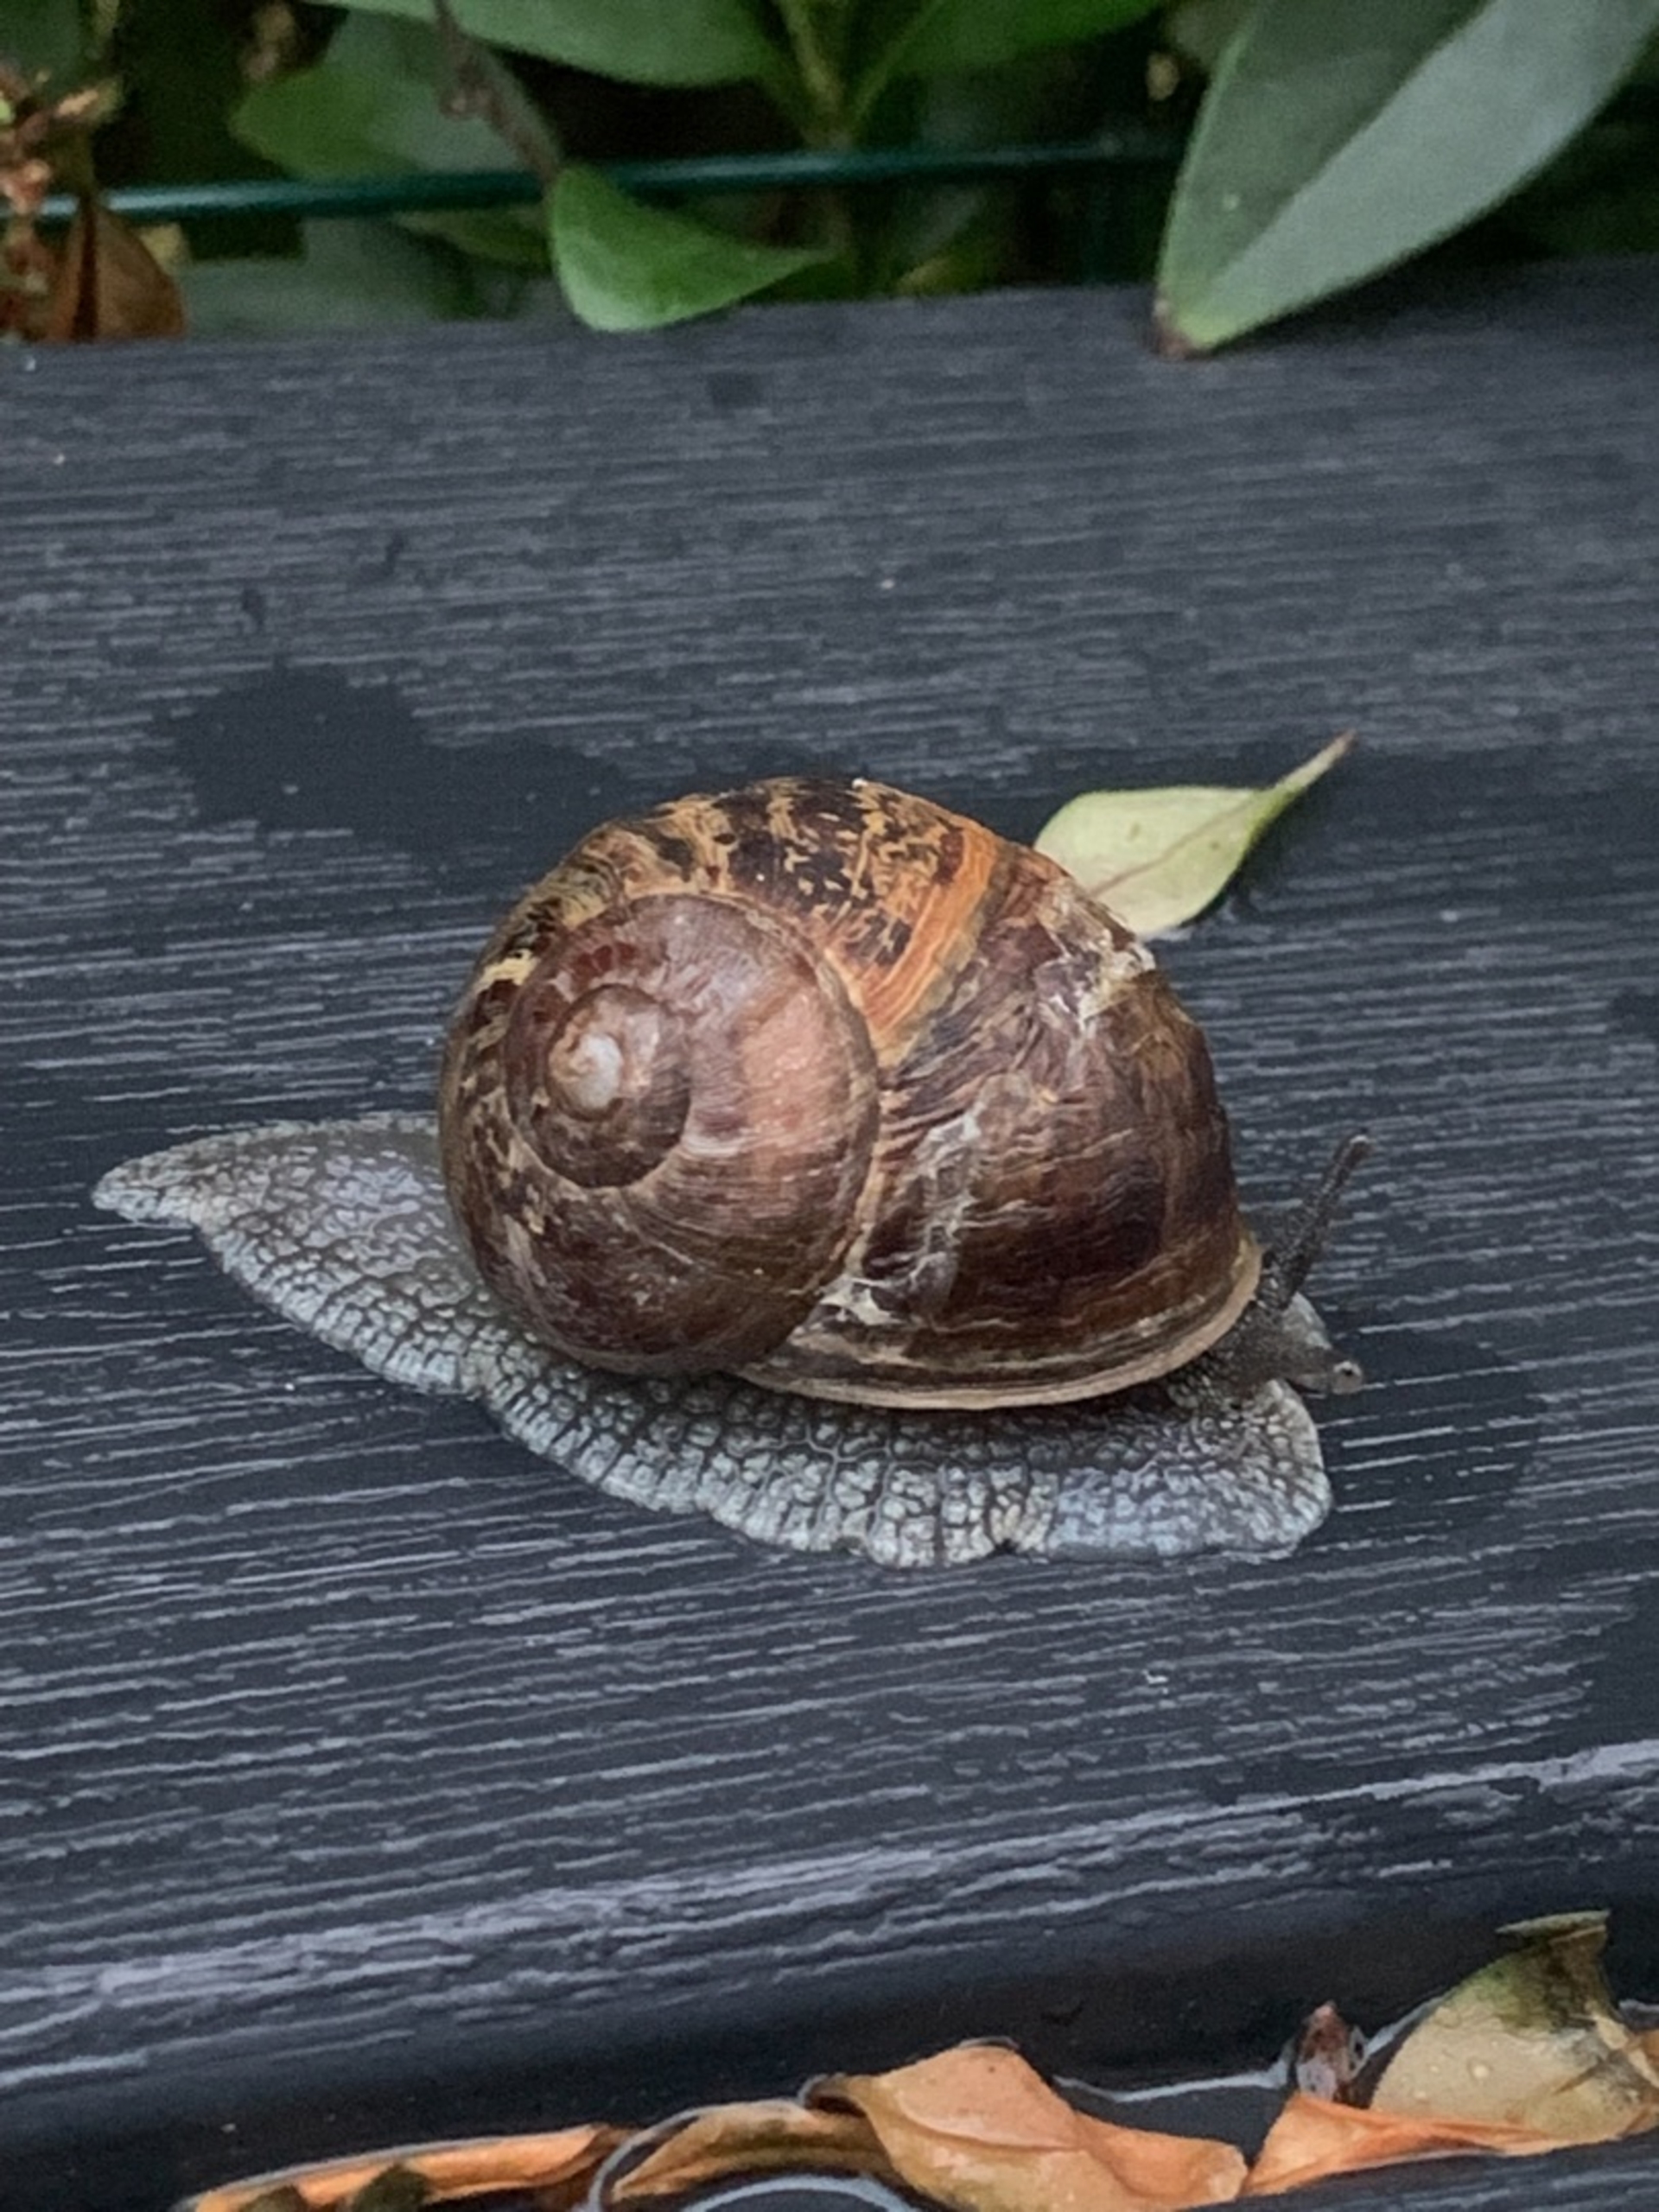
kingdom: Animalia
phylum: Mollusca
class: Gastropoda
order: Stylommatophora
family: Helicidae
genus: Cornu
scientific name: Cornu aspersum
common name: Plettet voldsnegl
